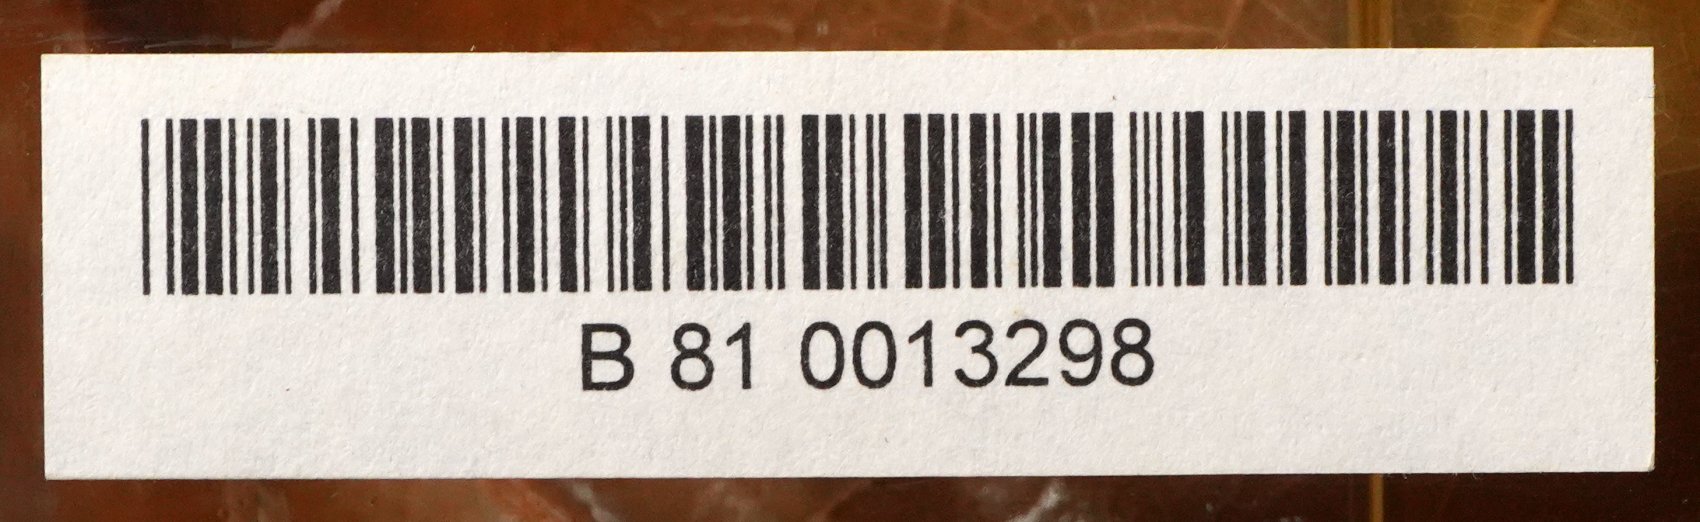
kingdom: Plantae
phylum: Tracheophyta
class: Magnoliopsida
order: Rosales
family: Moraceae
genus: Artocarpus
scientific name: Artocarpus altilis
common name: Breadfruit
